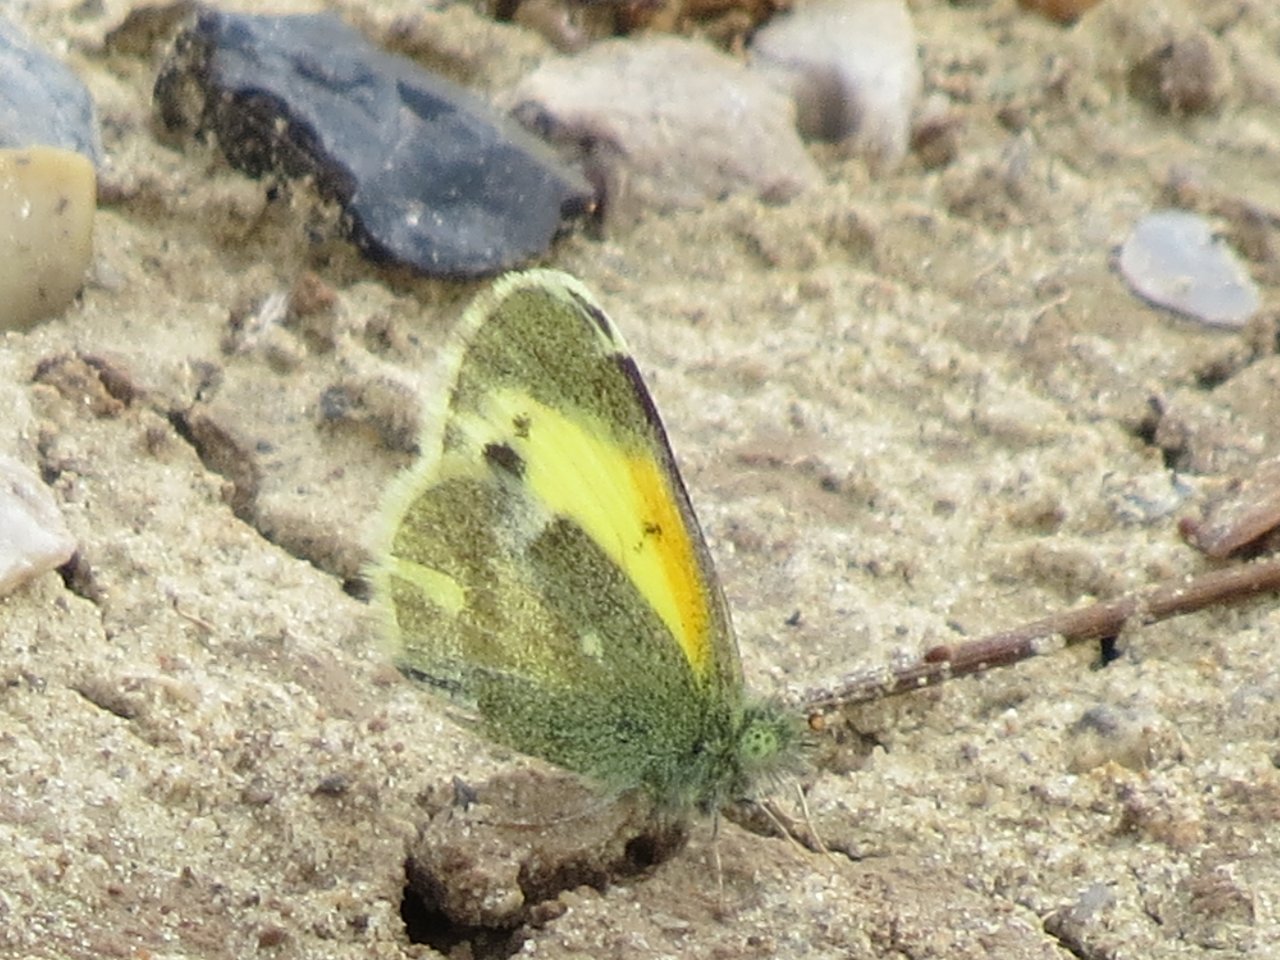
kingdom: Animalia
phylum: Arthropoda
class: Insecta
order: Lepidoptera
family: Pieridae
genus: Nathalis
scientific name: Nathalis iole
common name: Dainty Sulphur
